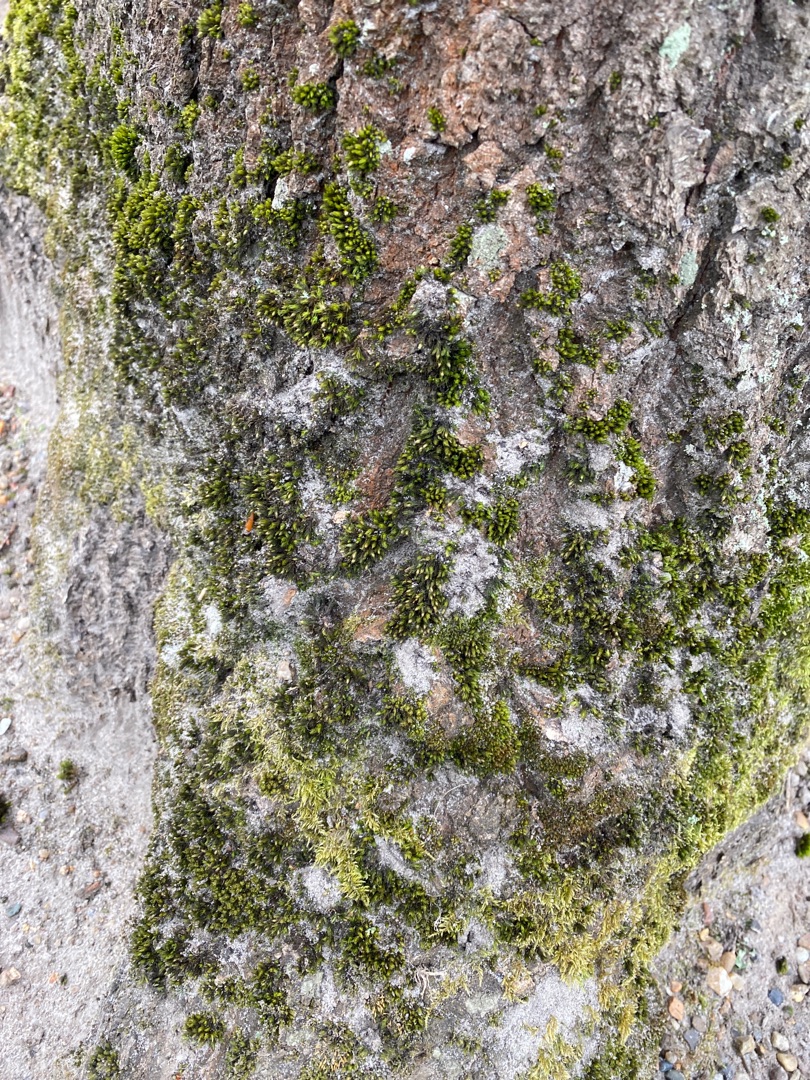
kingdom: Plantae
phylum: Bryophyta
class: Bryopsida
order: Orthotrichales
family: Orthotrichaceae
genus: Lewinskya
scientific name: Lewinskya affinis
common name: Almindelig furehætte
